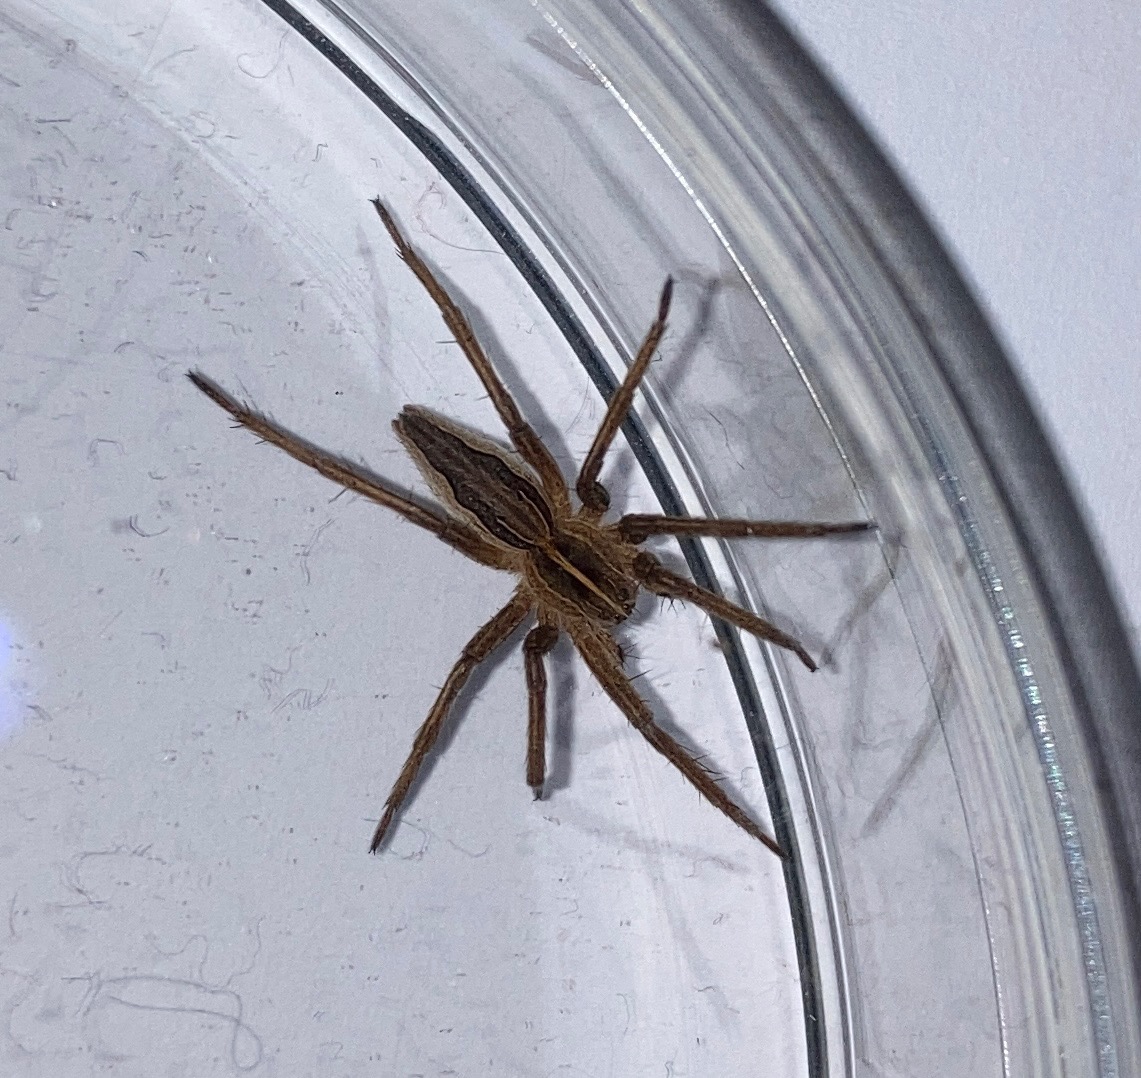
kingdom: Animalia
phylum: Arthropoda
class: Arachnida
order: Araneae
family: Pisauridae
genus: Pisaura
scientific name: Pisaura mirabilis
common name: Almindelig rovedderkop
